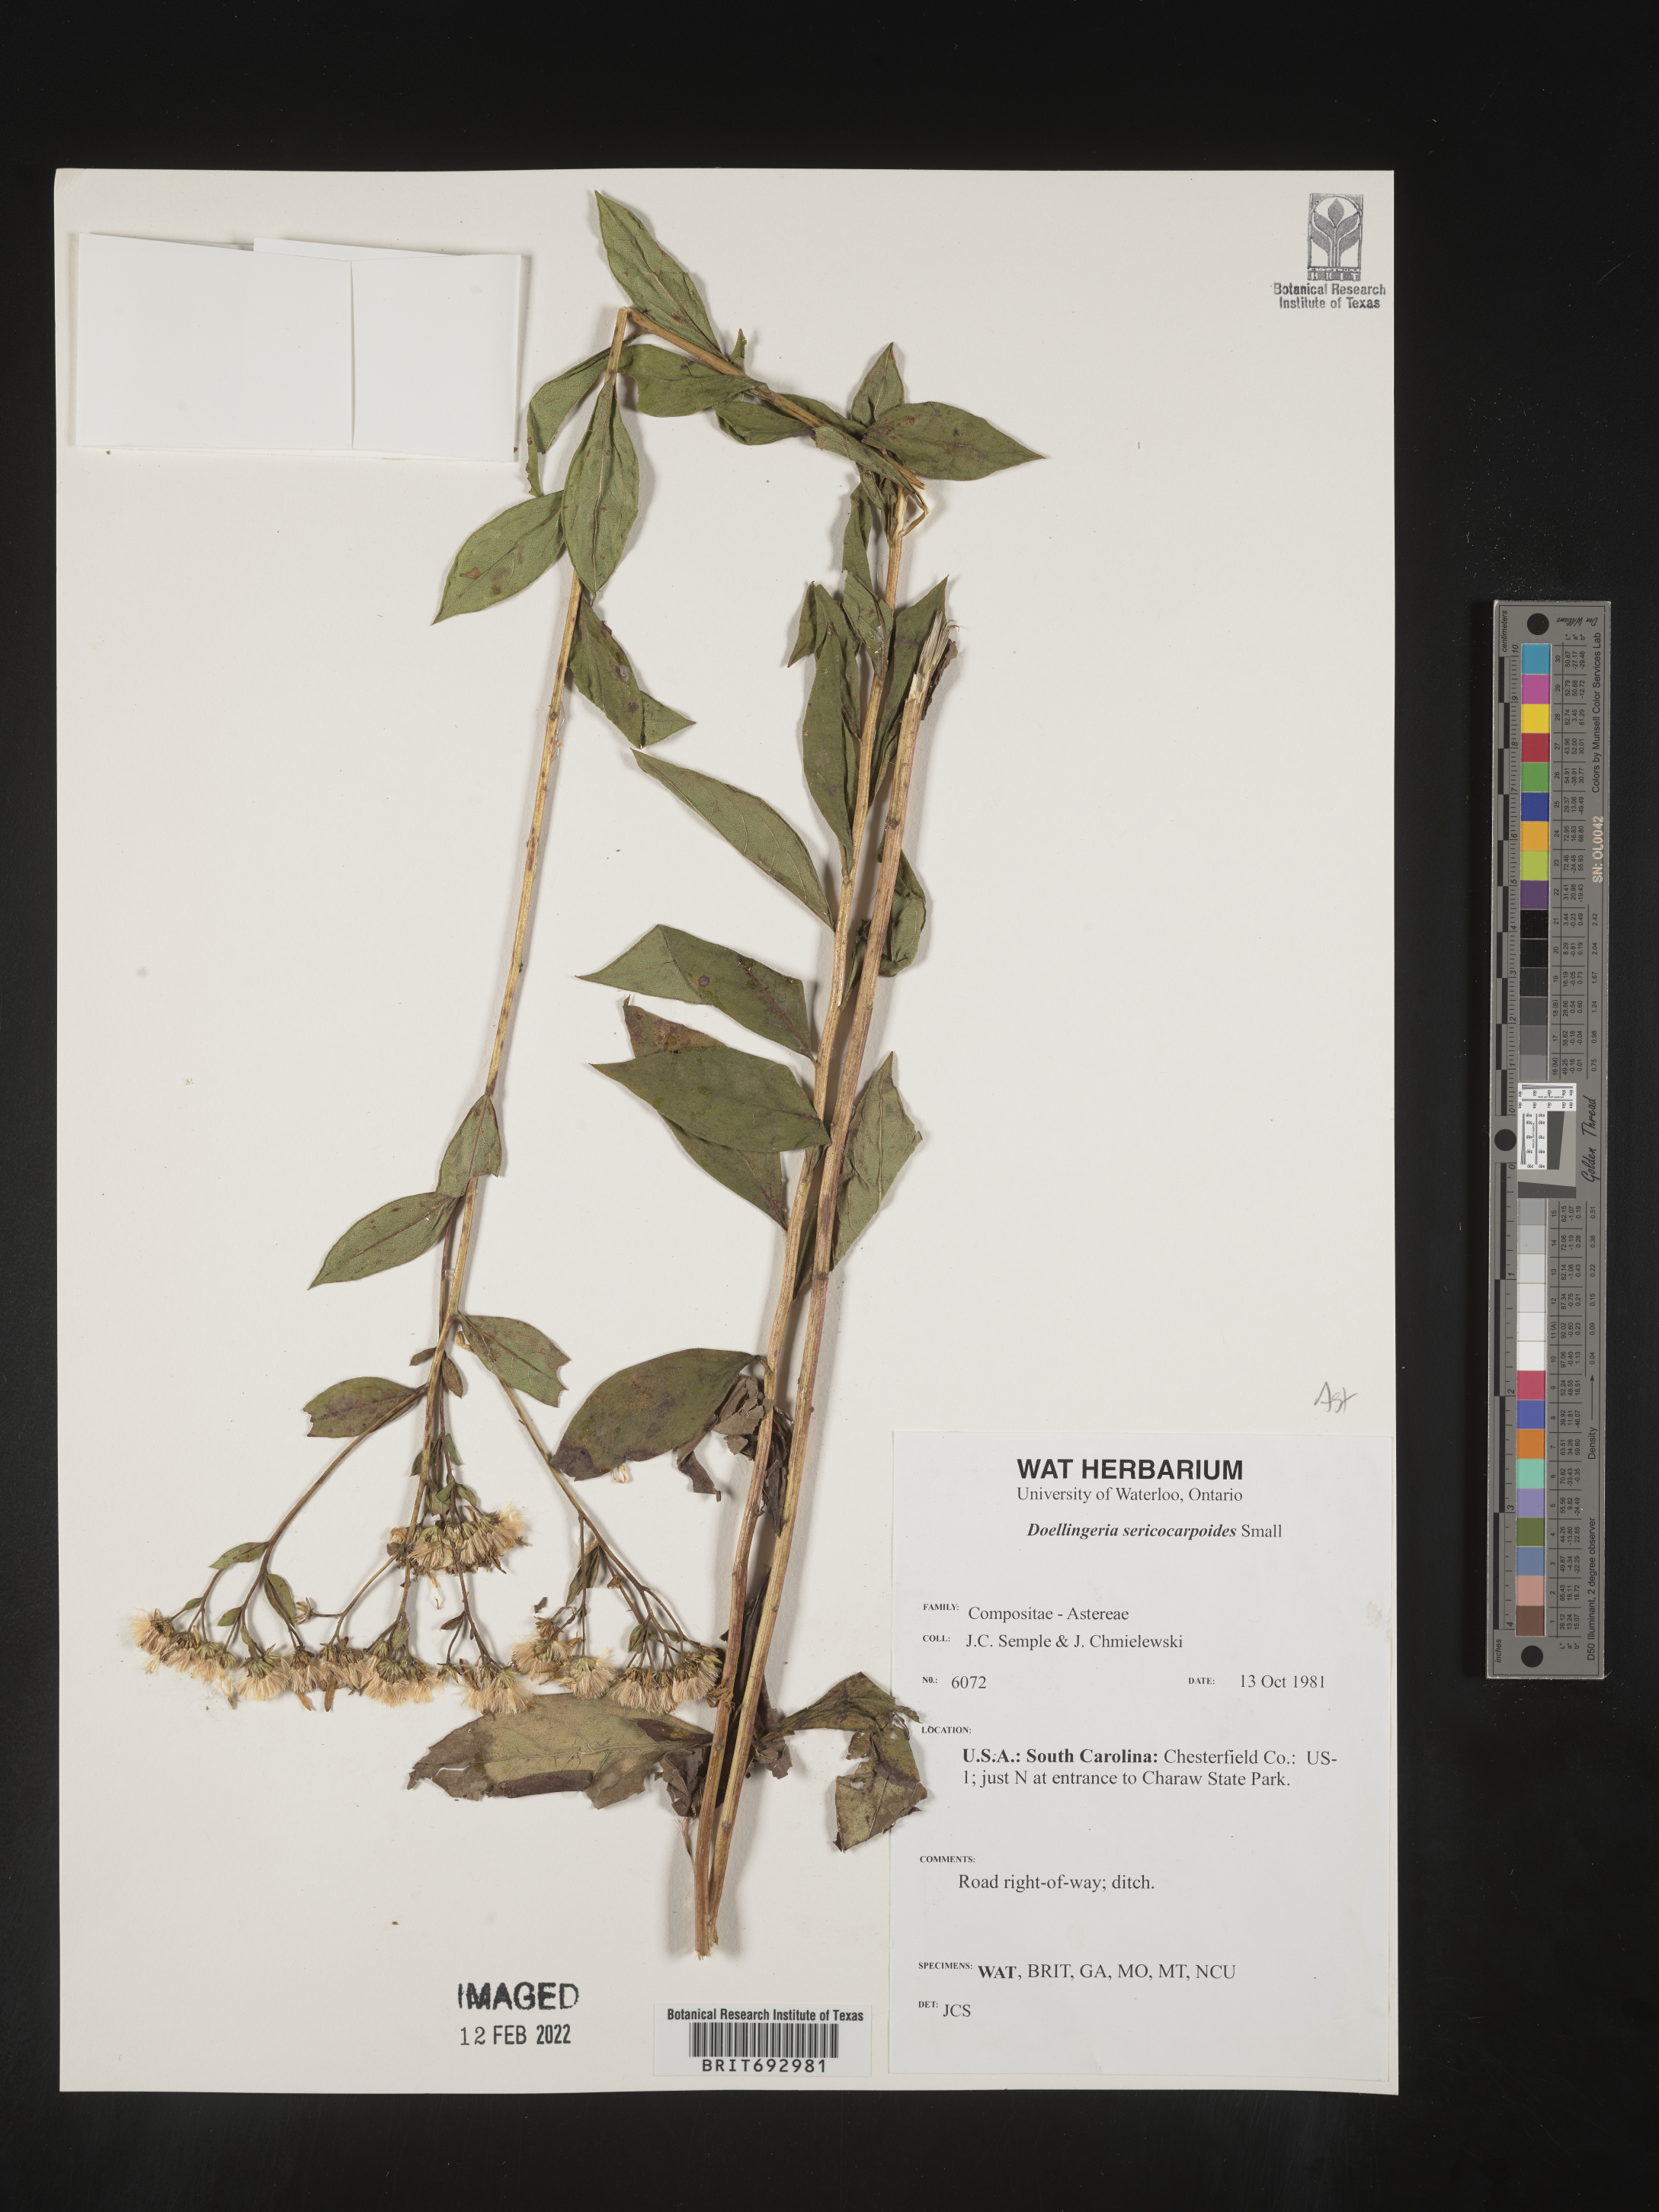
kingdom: Plantae
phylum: Tracheophyta
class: Magnoliopsida
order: Asterales
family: Asteraceae
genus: Doellingeria
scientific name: Doellingeria sericocarpoides
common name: Southern tall flat-top aster
